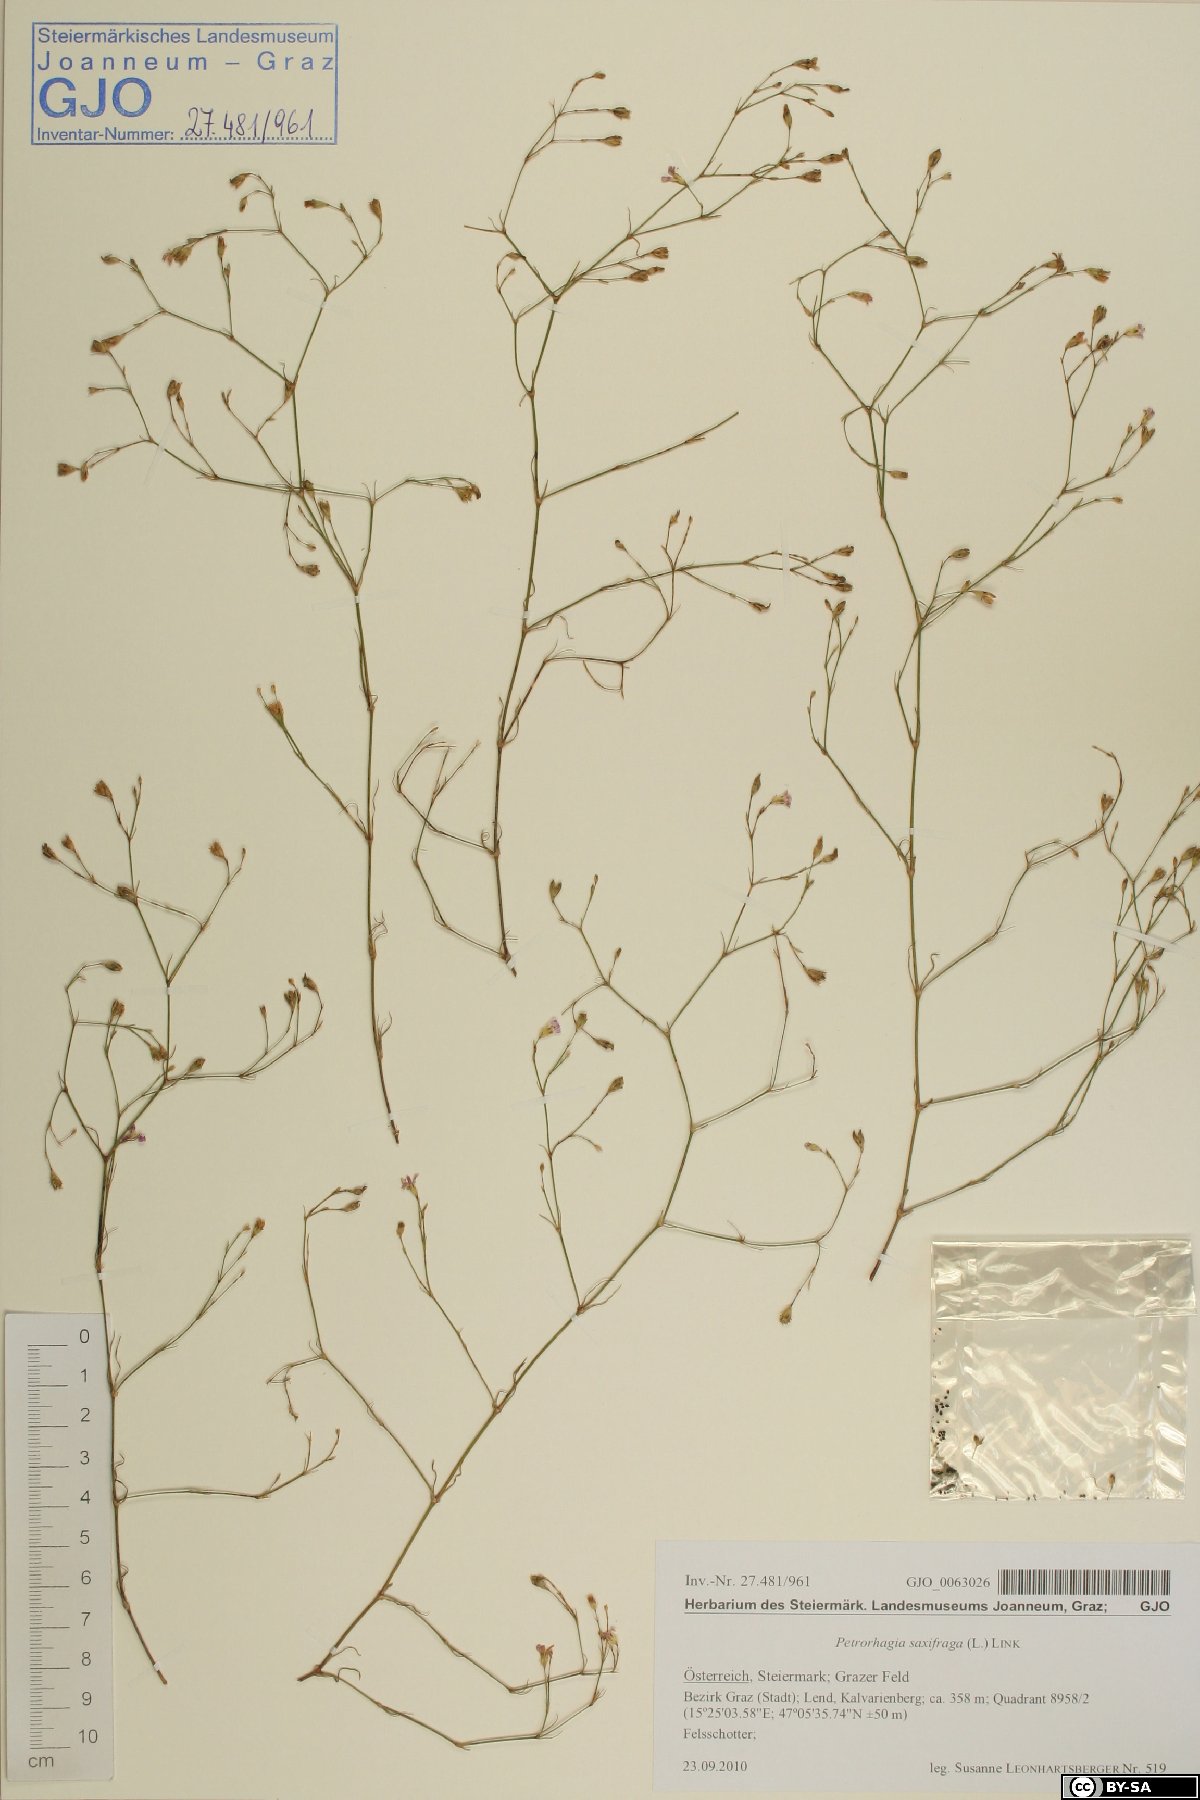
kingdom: Plantae
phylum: Tracheophyta
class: Magnoliopsida
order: Caryophyllales
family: Caryophyllaceae
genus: Petrorhagia
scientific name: Petrorhagia saxifraga
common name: Tunicflower
